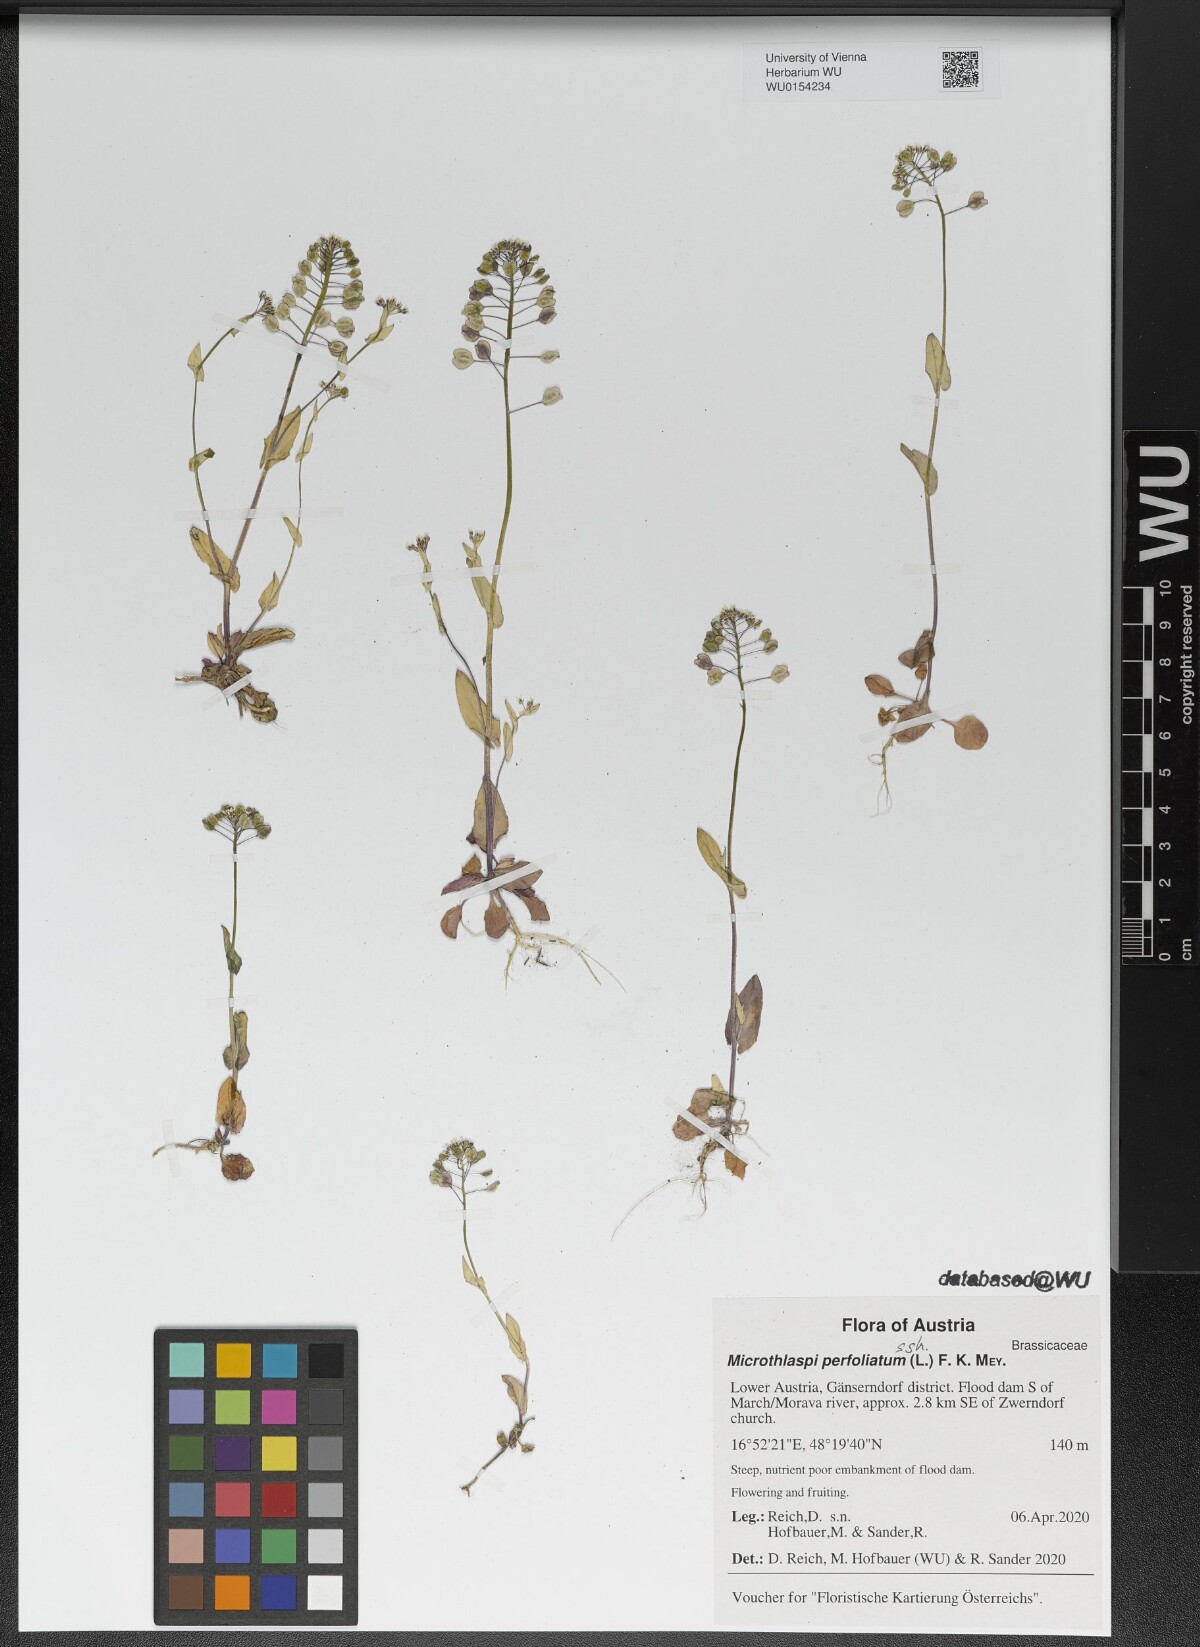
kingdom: Plantae
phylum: Tracheophyta
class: Magnoliopsida
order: Brassicales
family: Brassicaceae
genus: Noccaea
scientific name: Noccaea perfoliata
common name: Perfoliate pennycress
